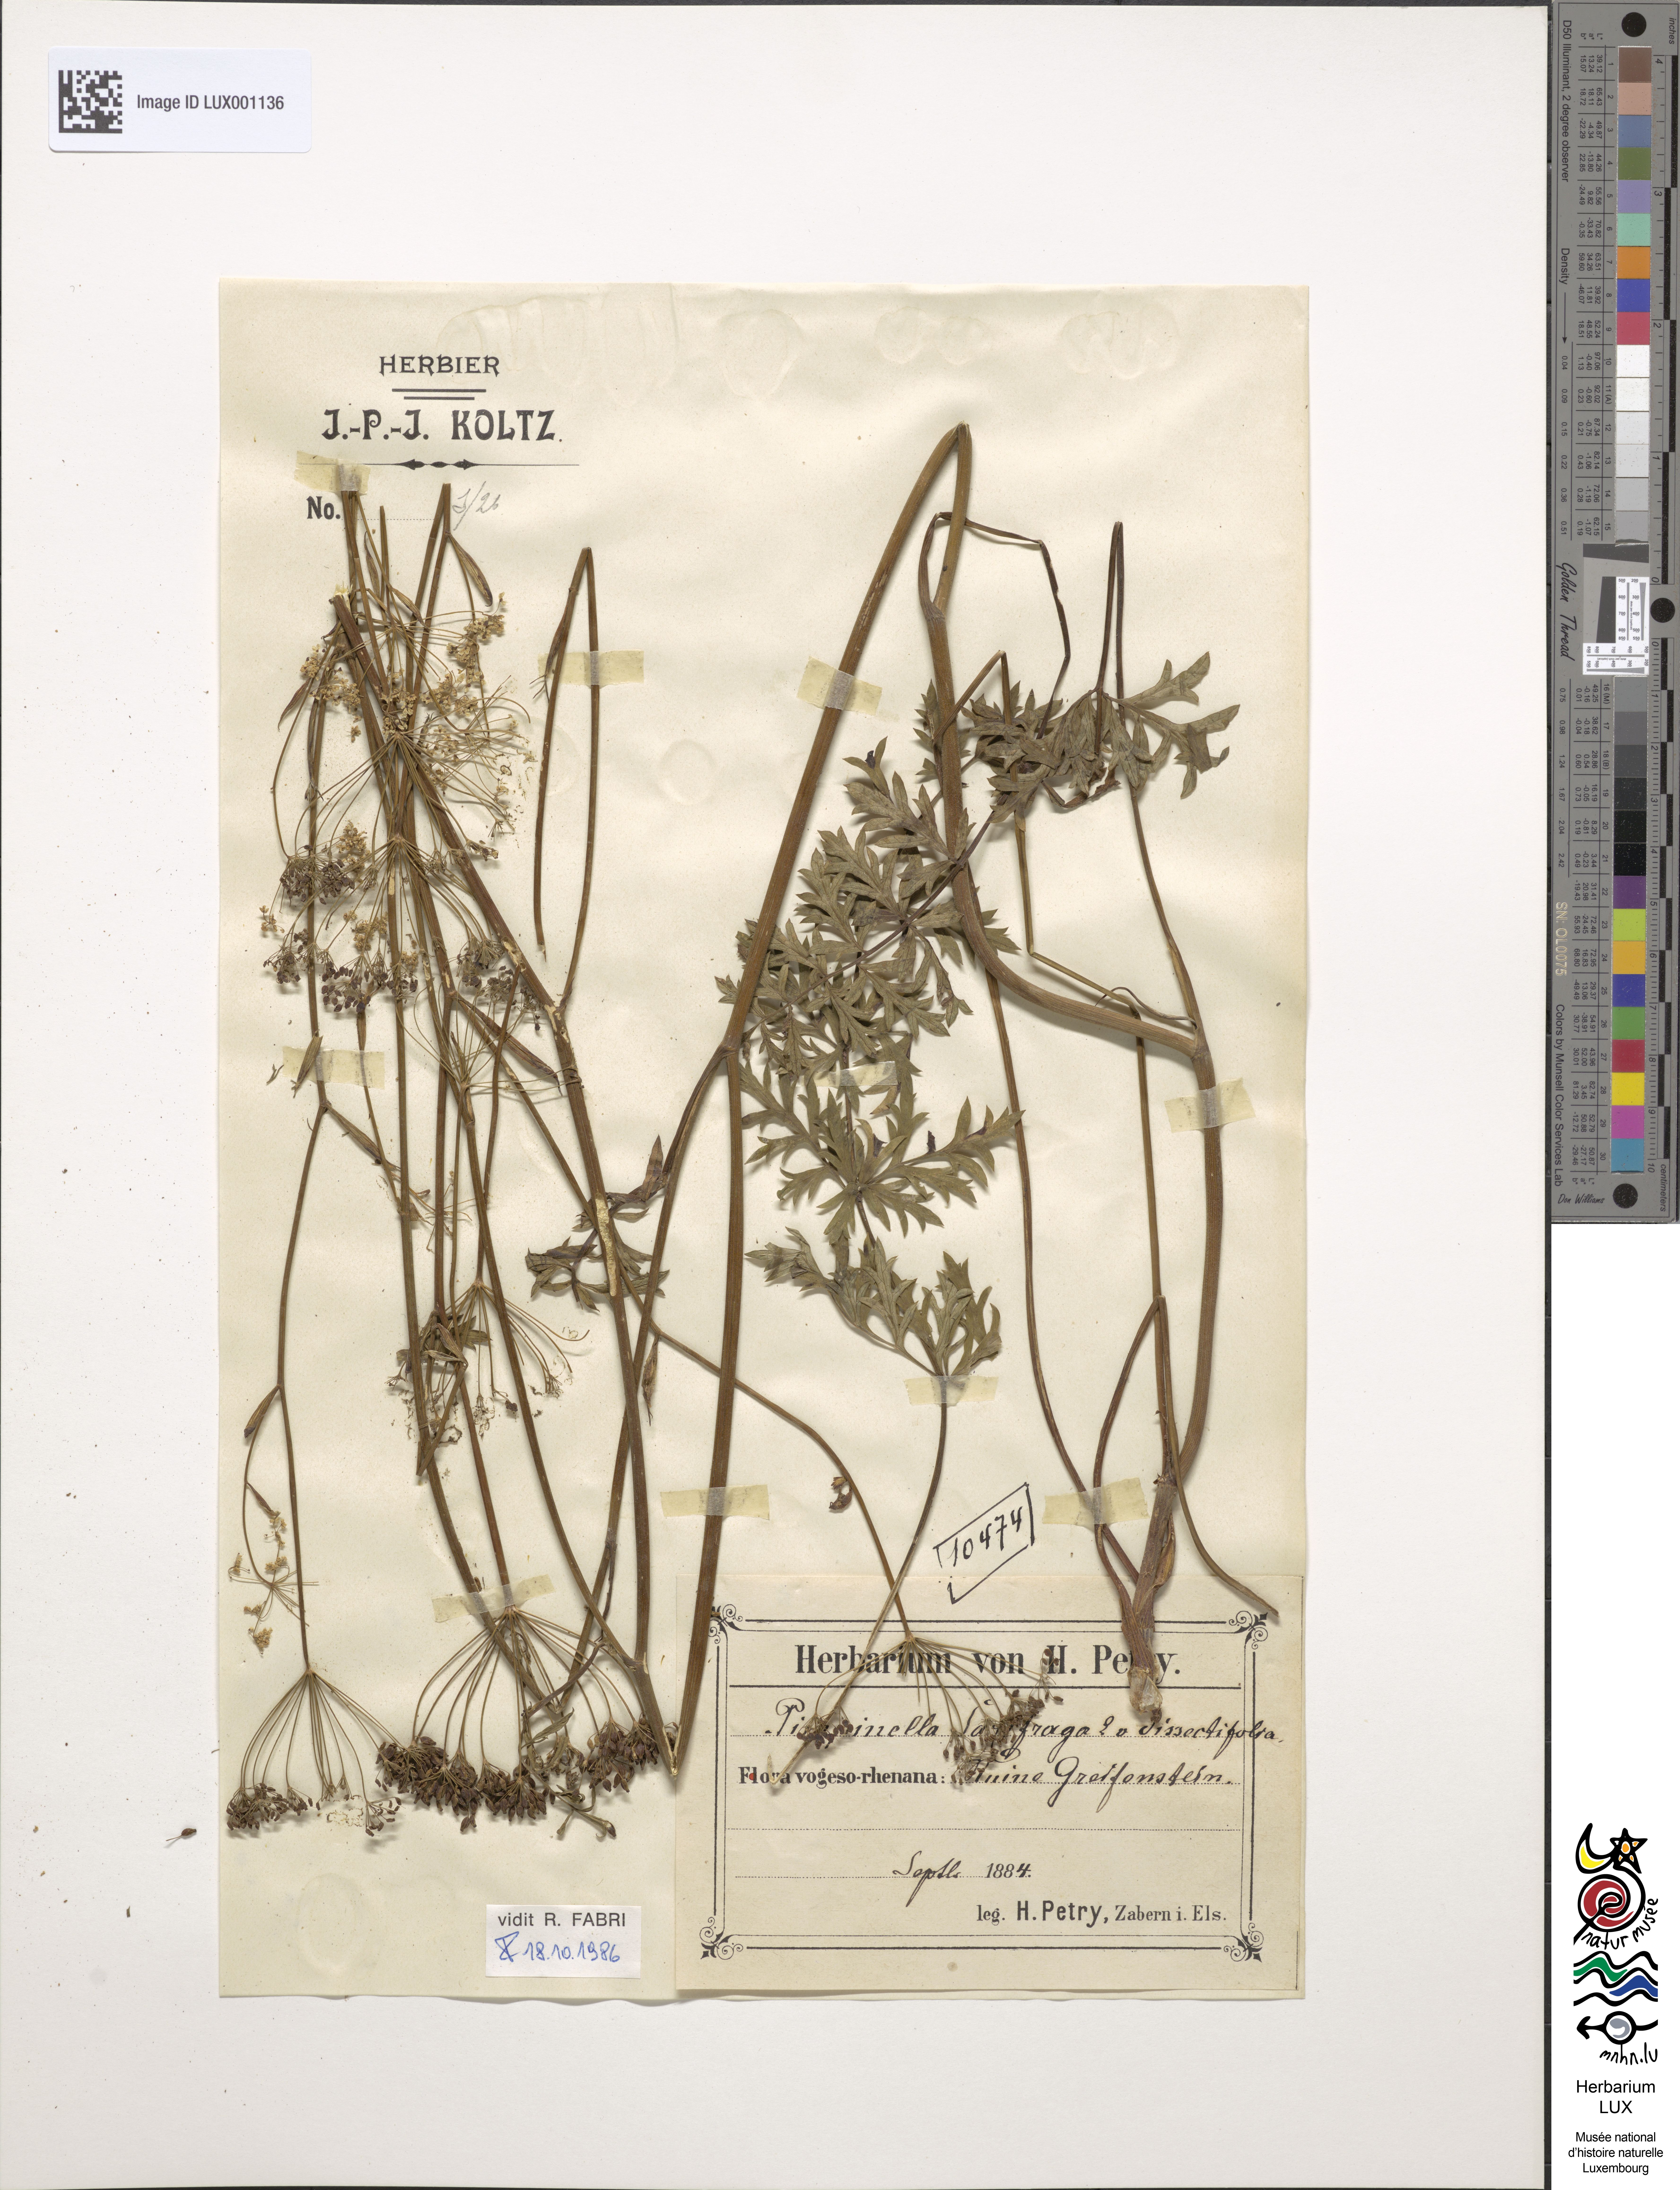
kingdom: Plantae
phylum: Tracheophyta
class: Magnoliopsida
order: Apiales
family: Apiaceae
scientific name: Apiaceae
